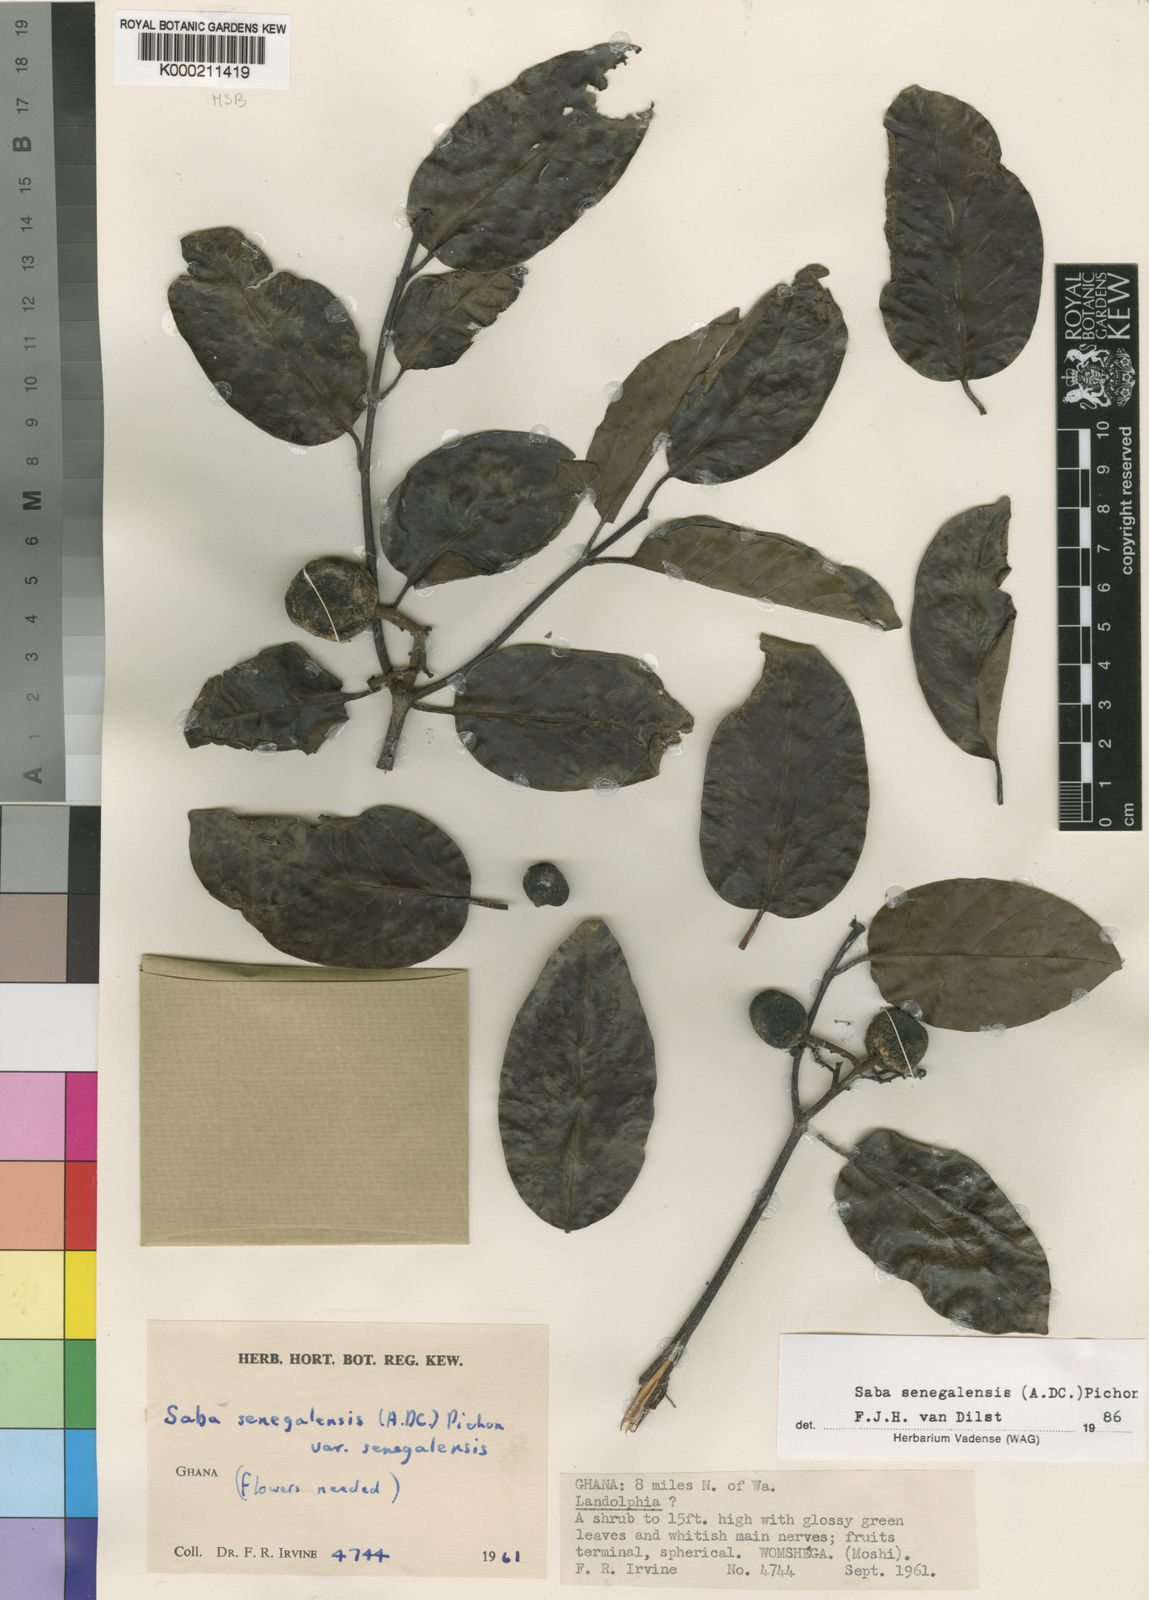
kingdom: Plantae
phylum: Tracheophyta
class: Magnoliopsida
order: Gentianales
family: Apocynaceae
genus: Saba
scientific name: Saba senegalensis
